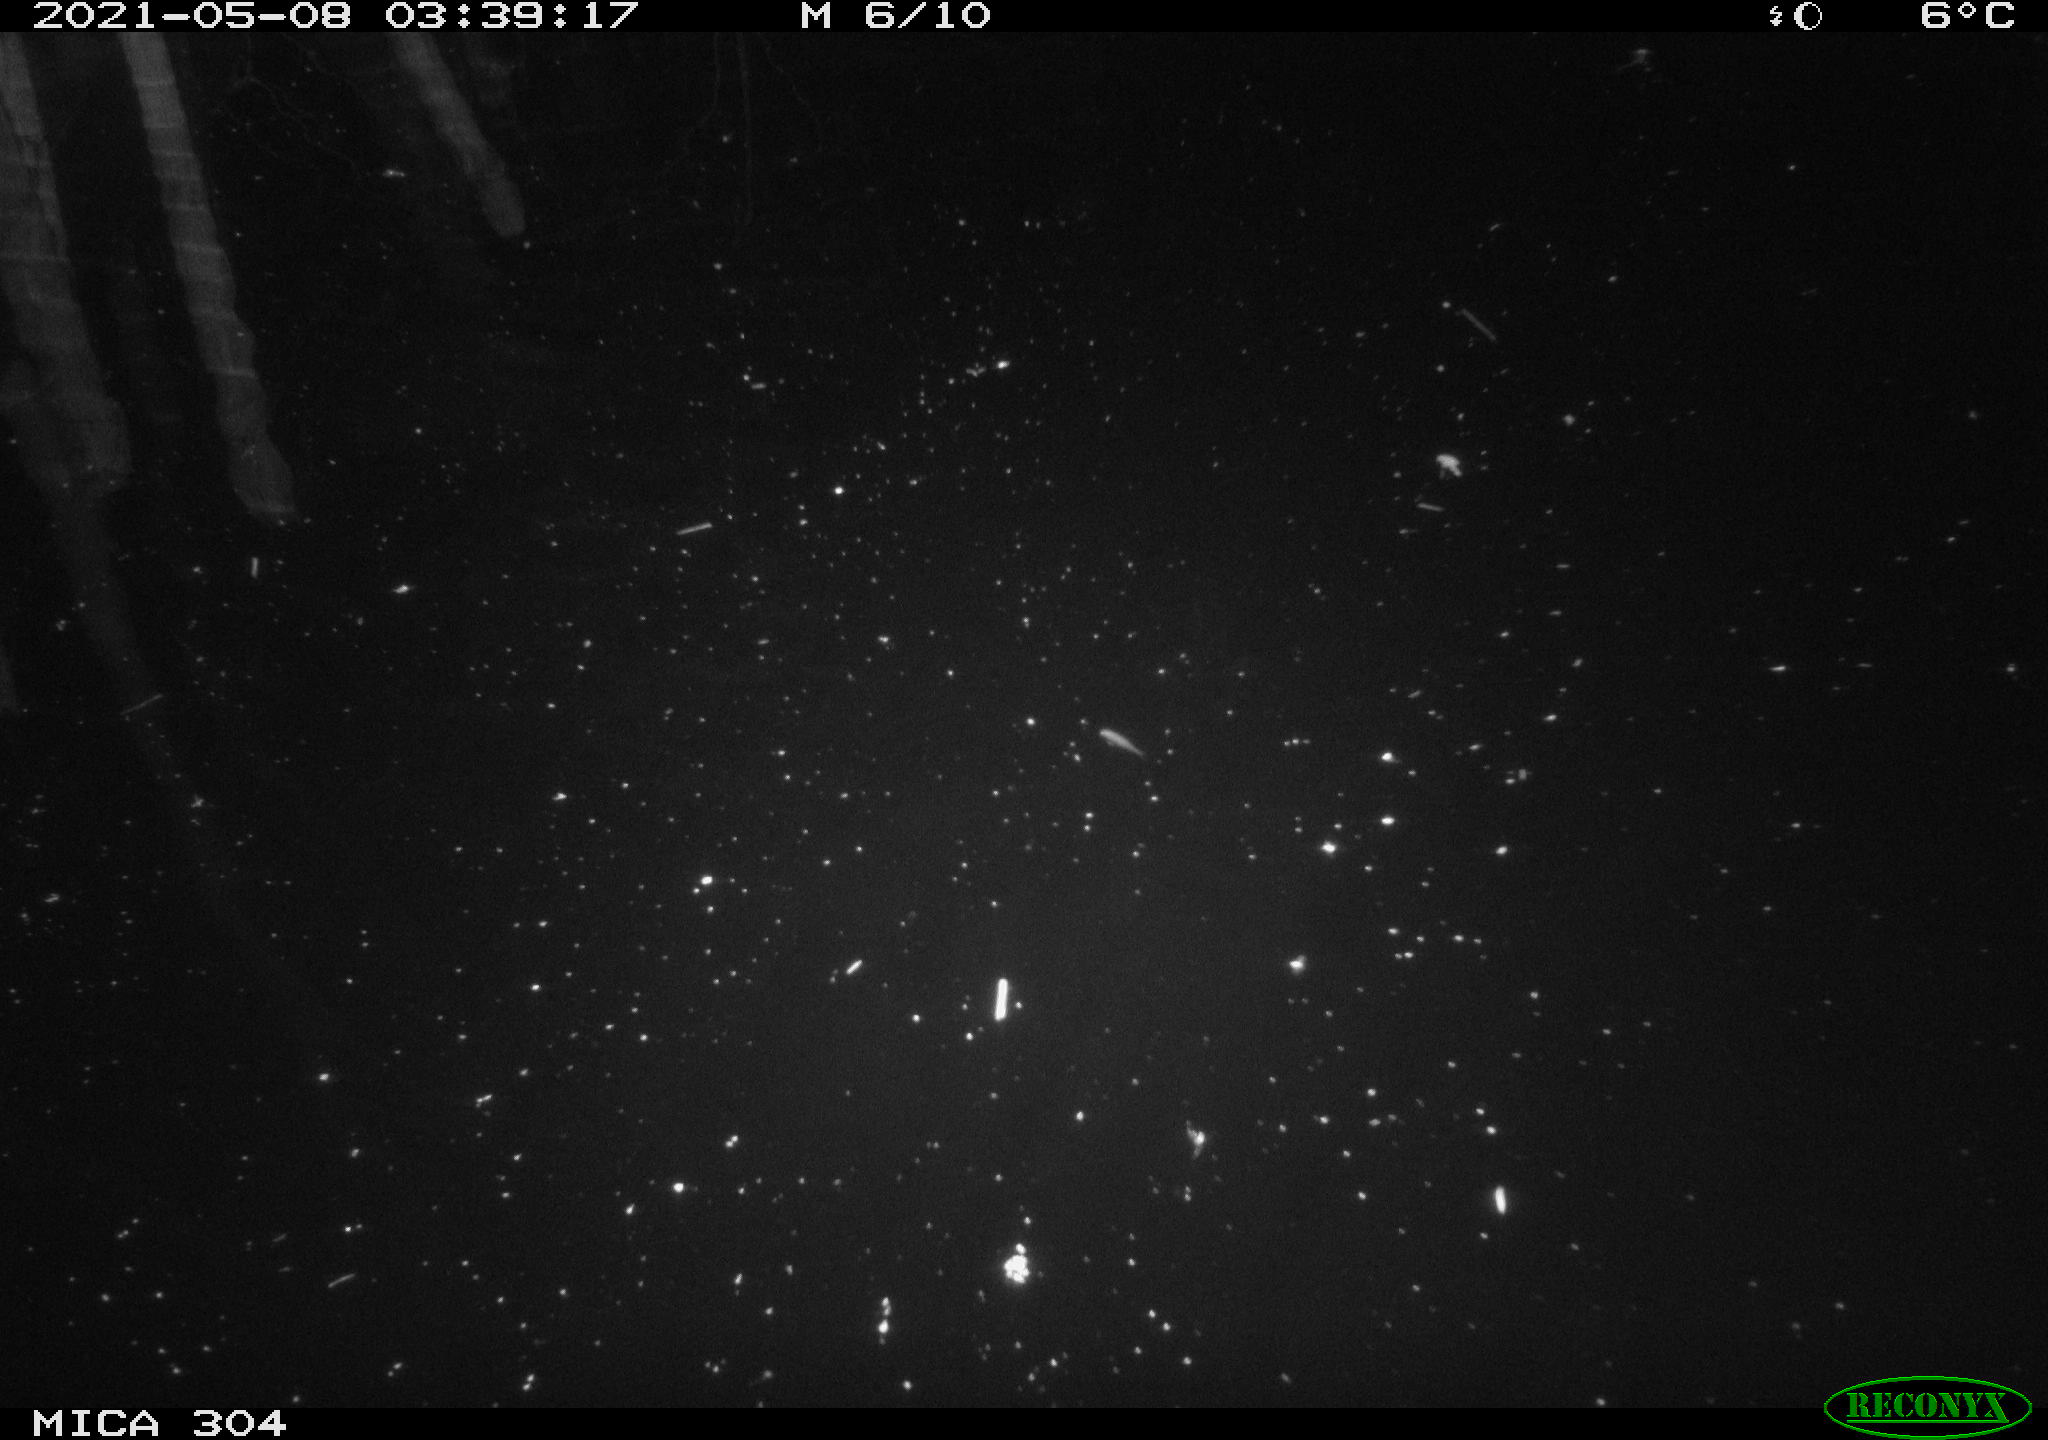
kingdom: Animalia
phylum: Chordata
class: Aves
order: Anseriformes
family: Anatidae
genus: Anas
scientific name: Anas platyrhynchos
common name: Mallard
